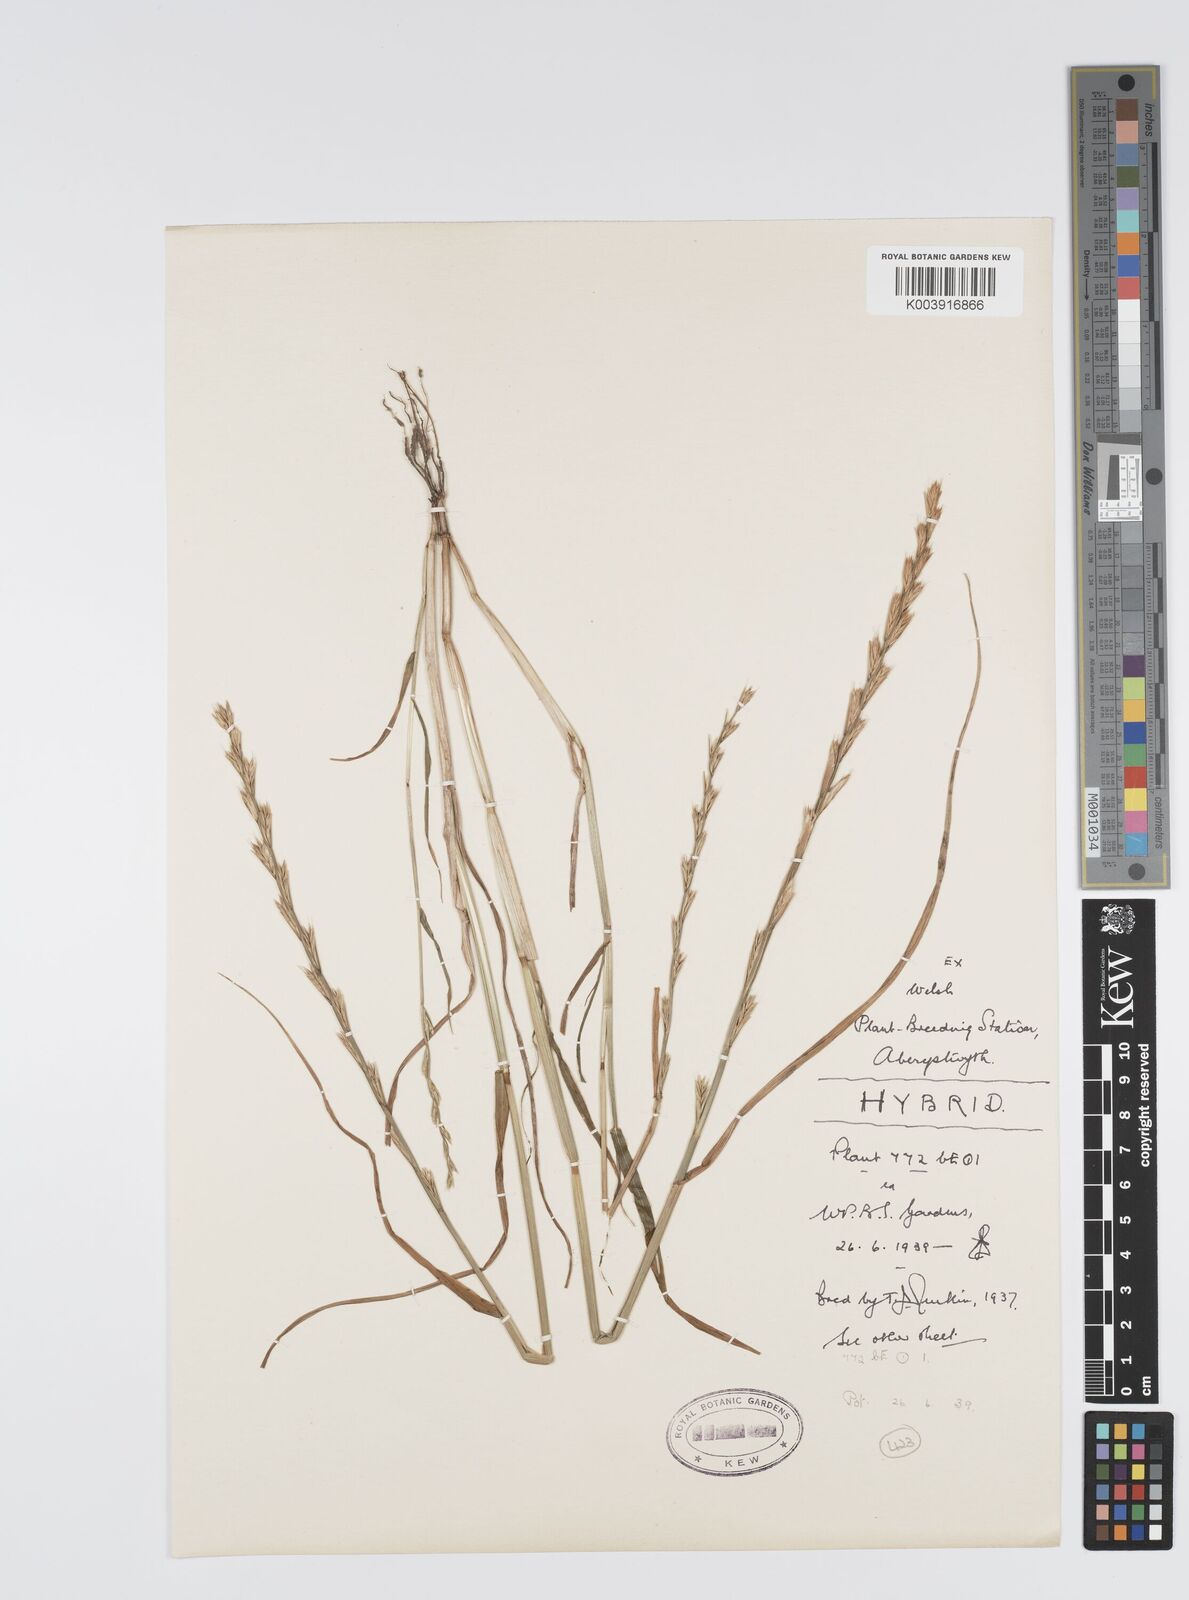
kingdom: Plantae
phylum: Tracheophyta
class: Liliopsida
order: Poales
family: Poaceae
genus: Lolium
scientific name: Lolium multiflorum
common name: Annual ryegrass
